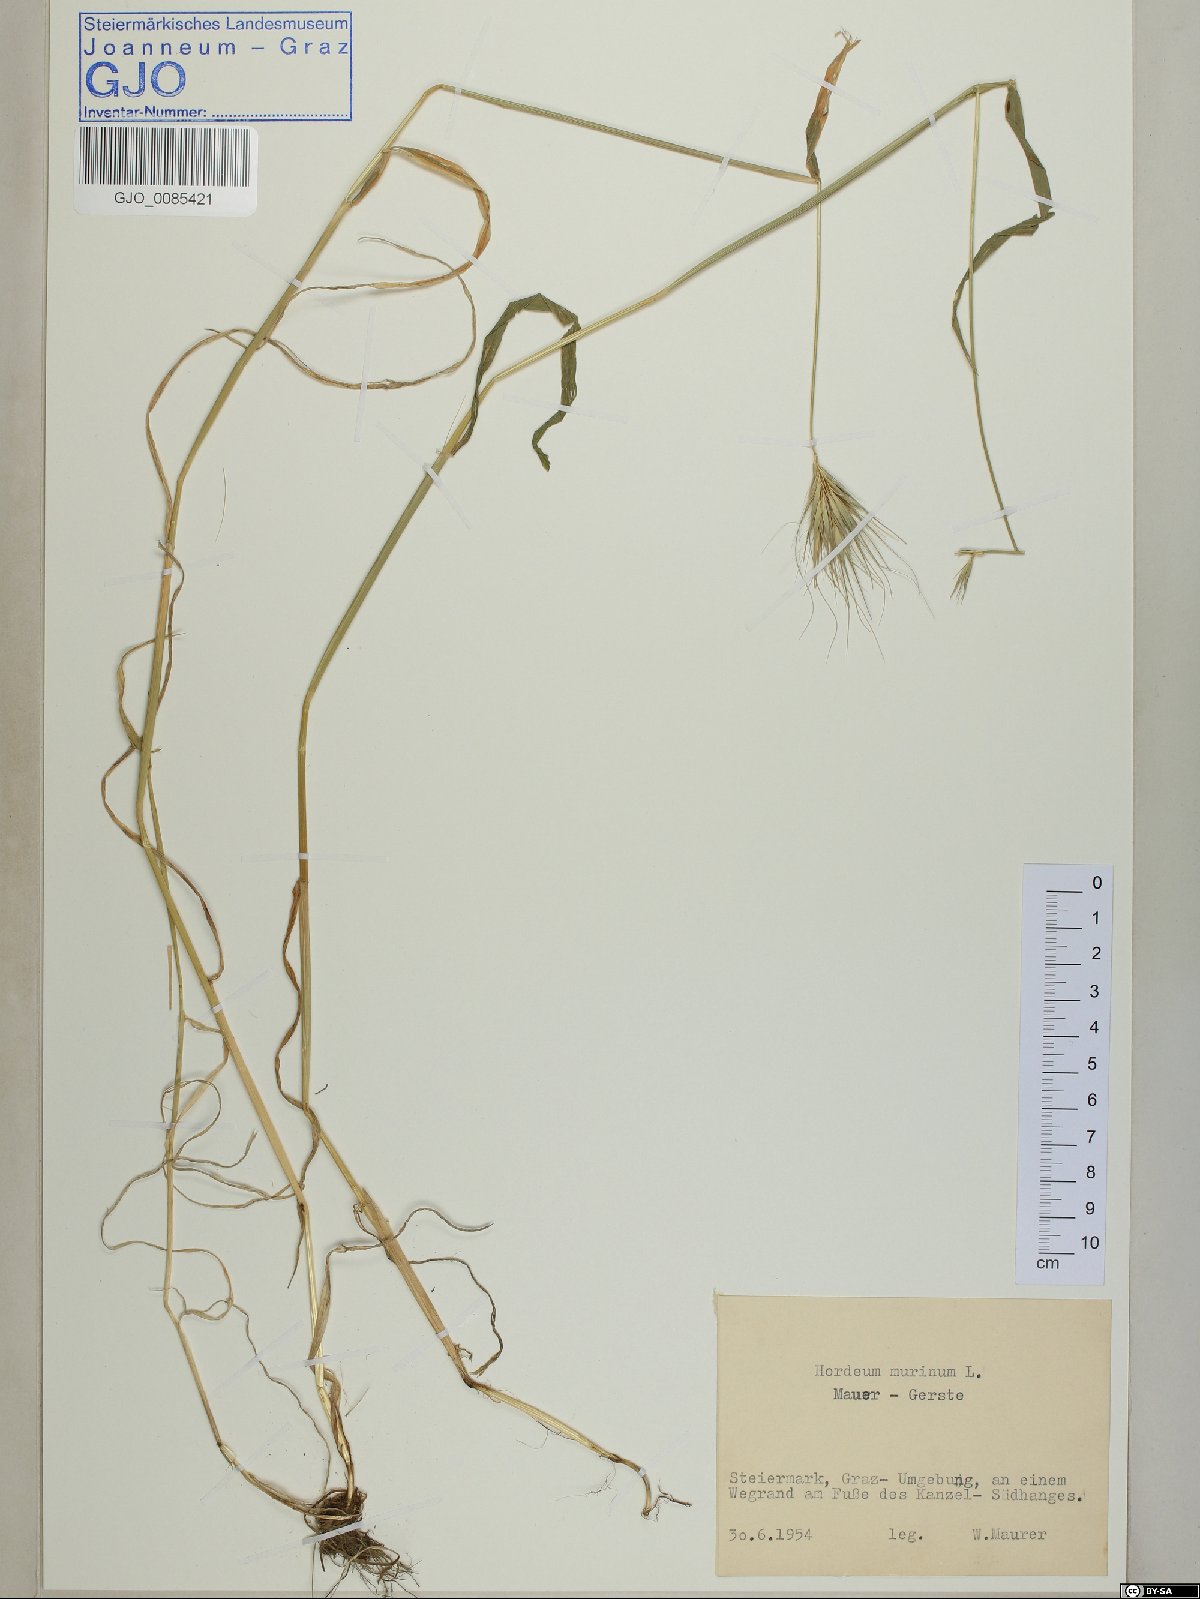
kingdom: Plantae
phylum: Tracheophyta
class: Liliopsida
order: Poales
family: Poaceae
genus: Hordeum
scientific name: Hordeum murinum
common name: Wall barley
